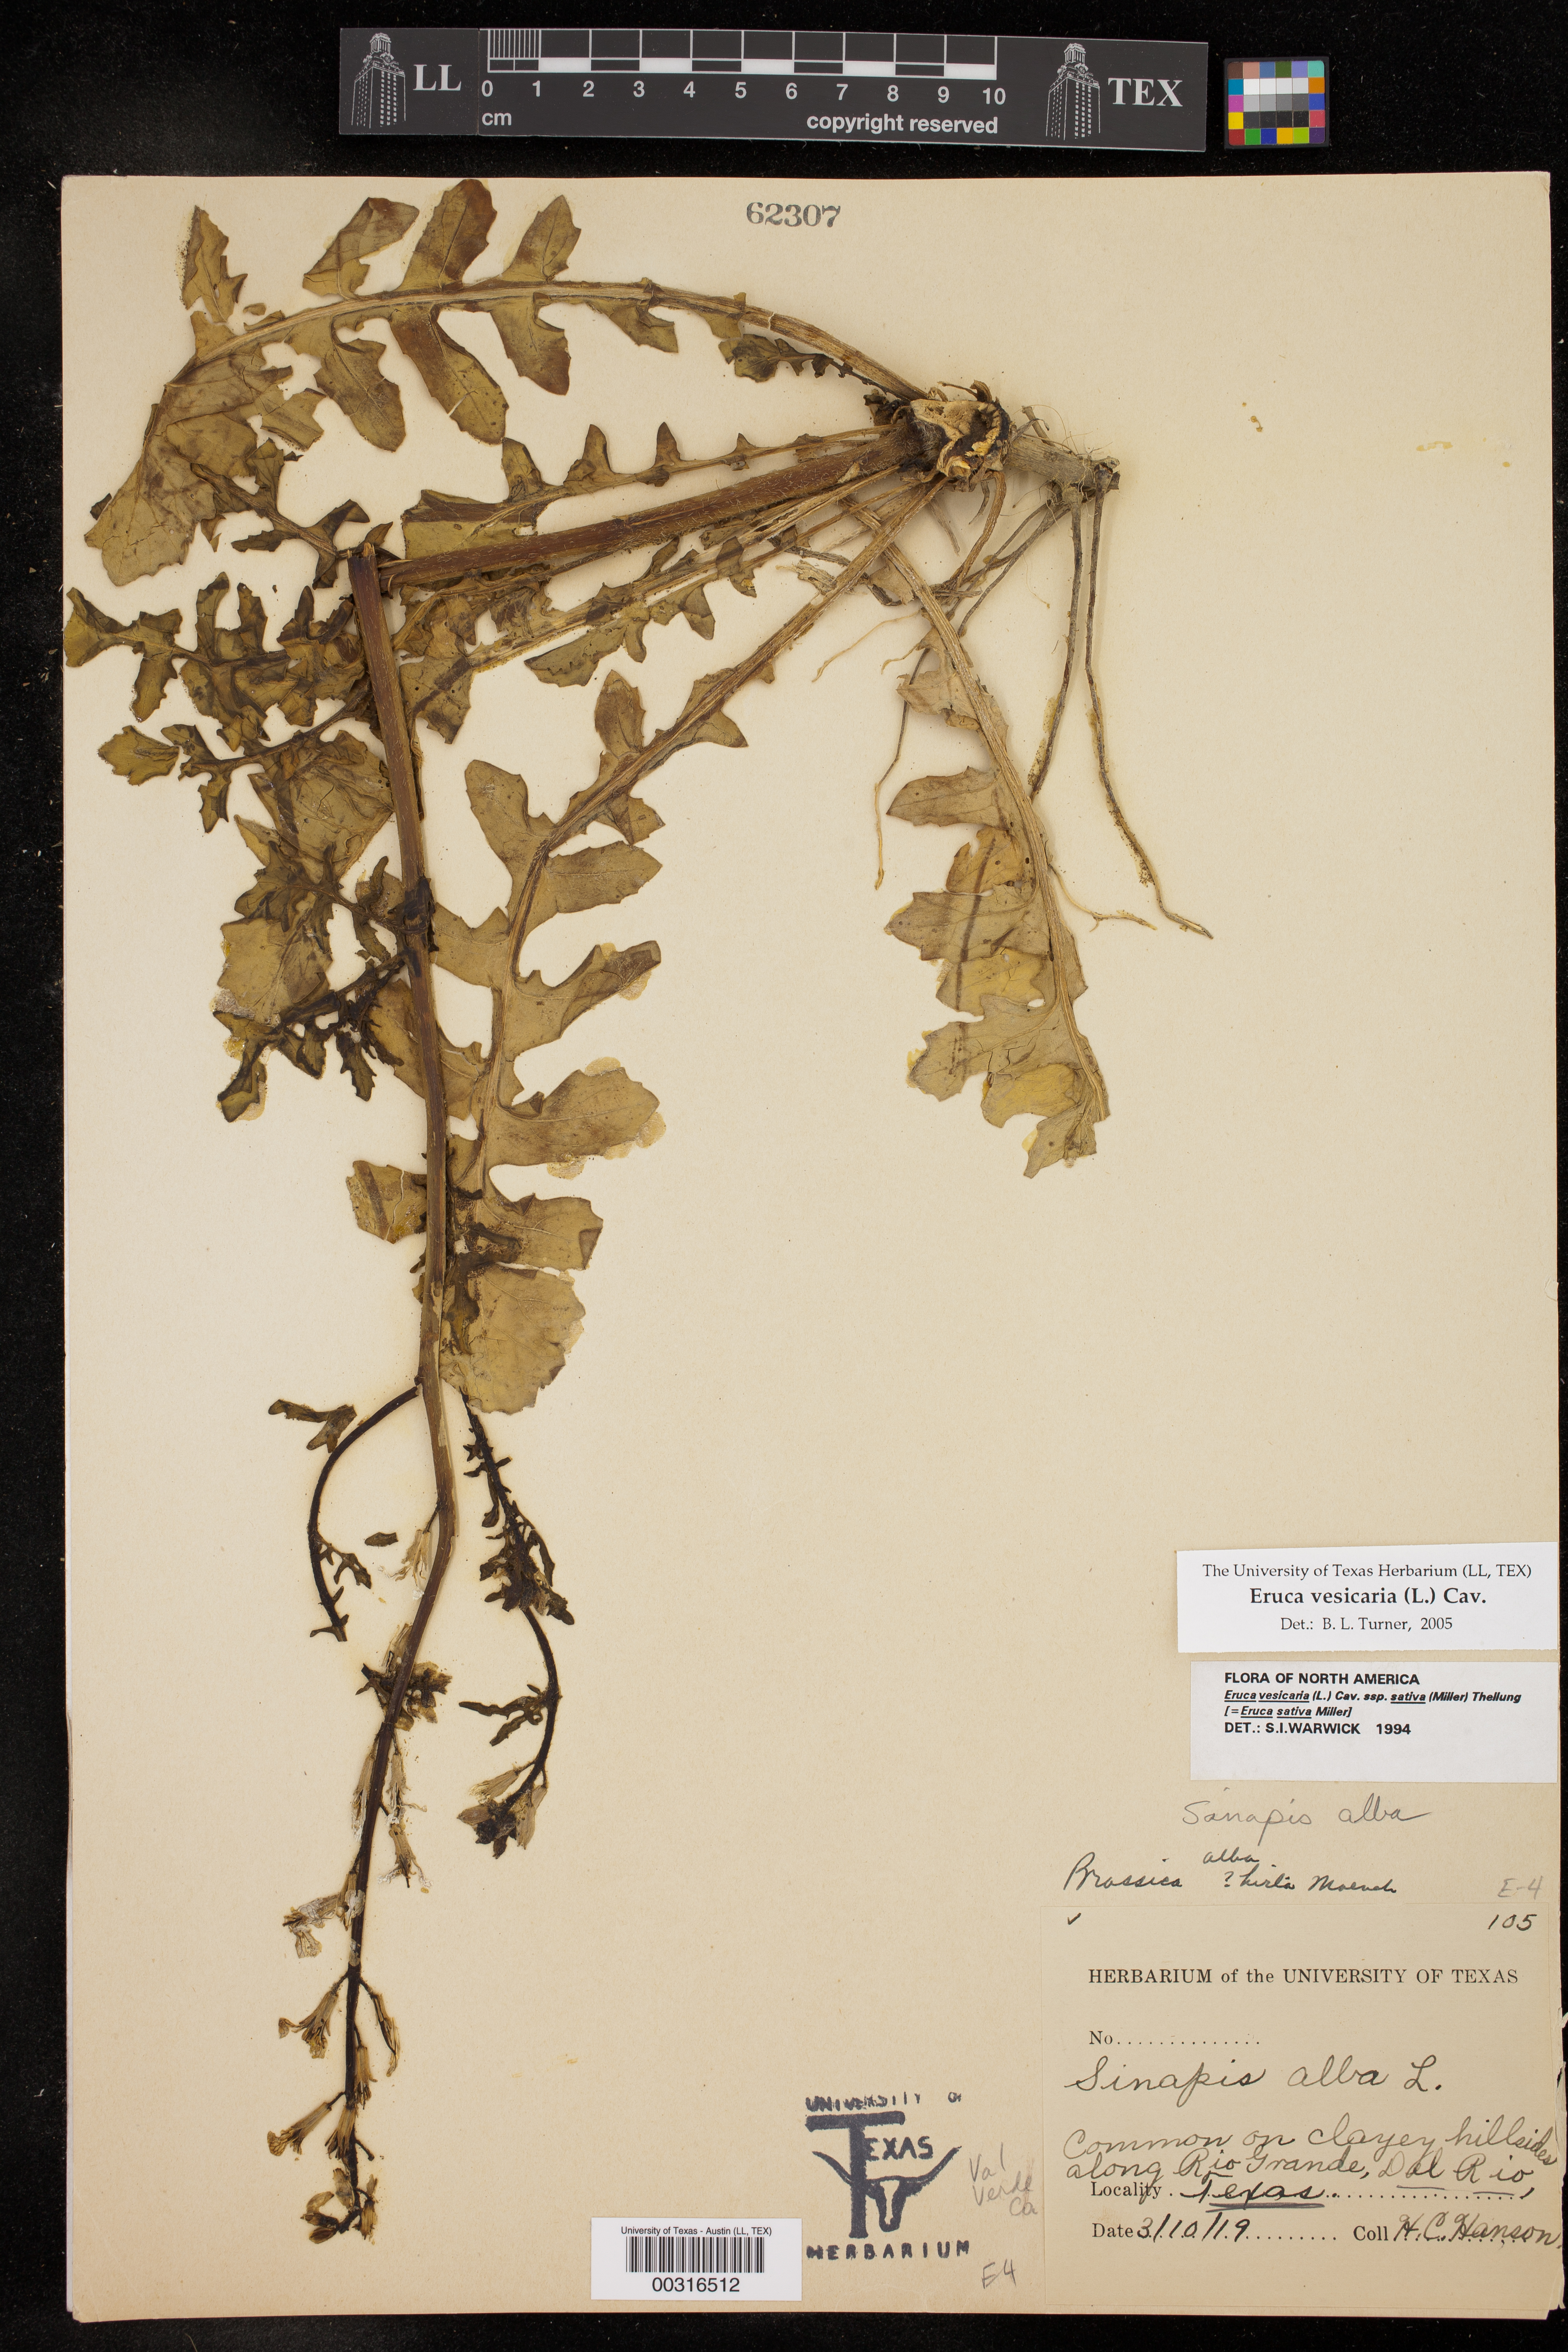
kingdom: Plantae
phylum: Tracheophyta
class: Magnoliopsida
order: Brassicales
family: Brassicaceae
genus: Eruca
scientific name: Eruca vesicaria
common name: Garden rocket
